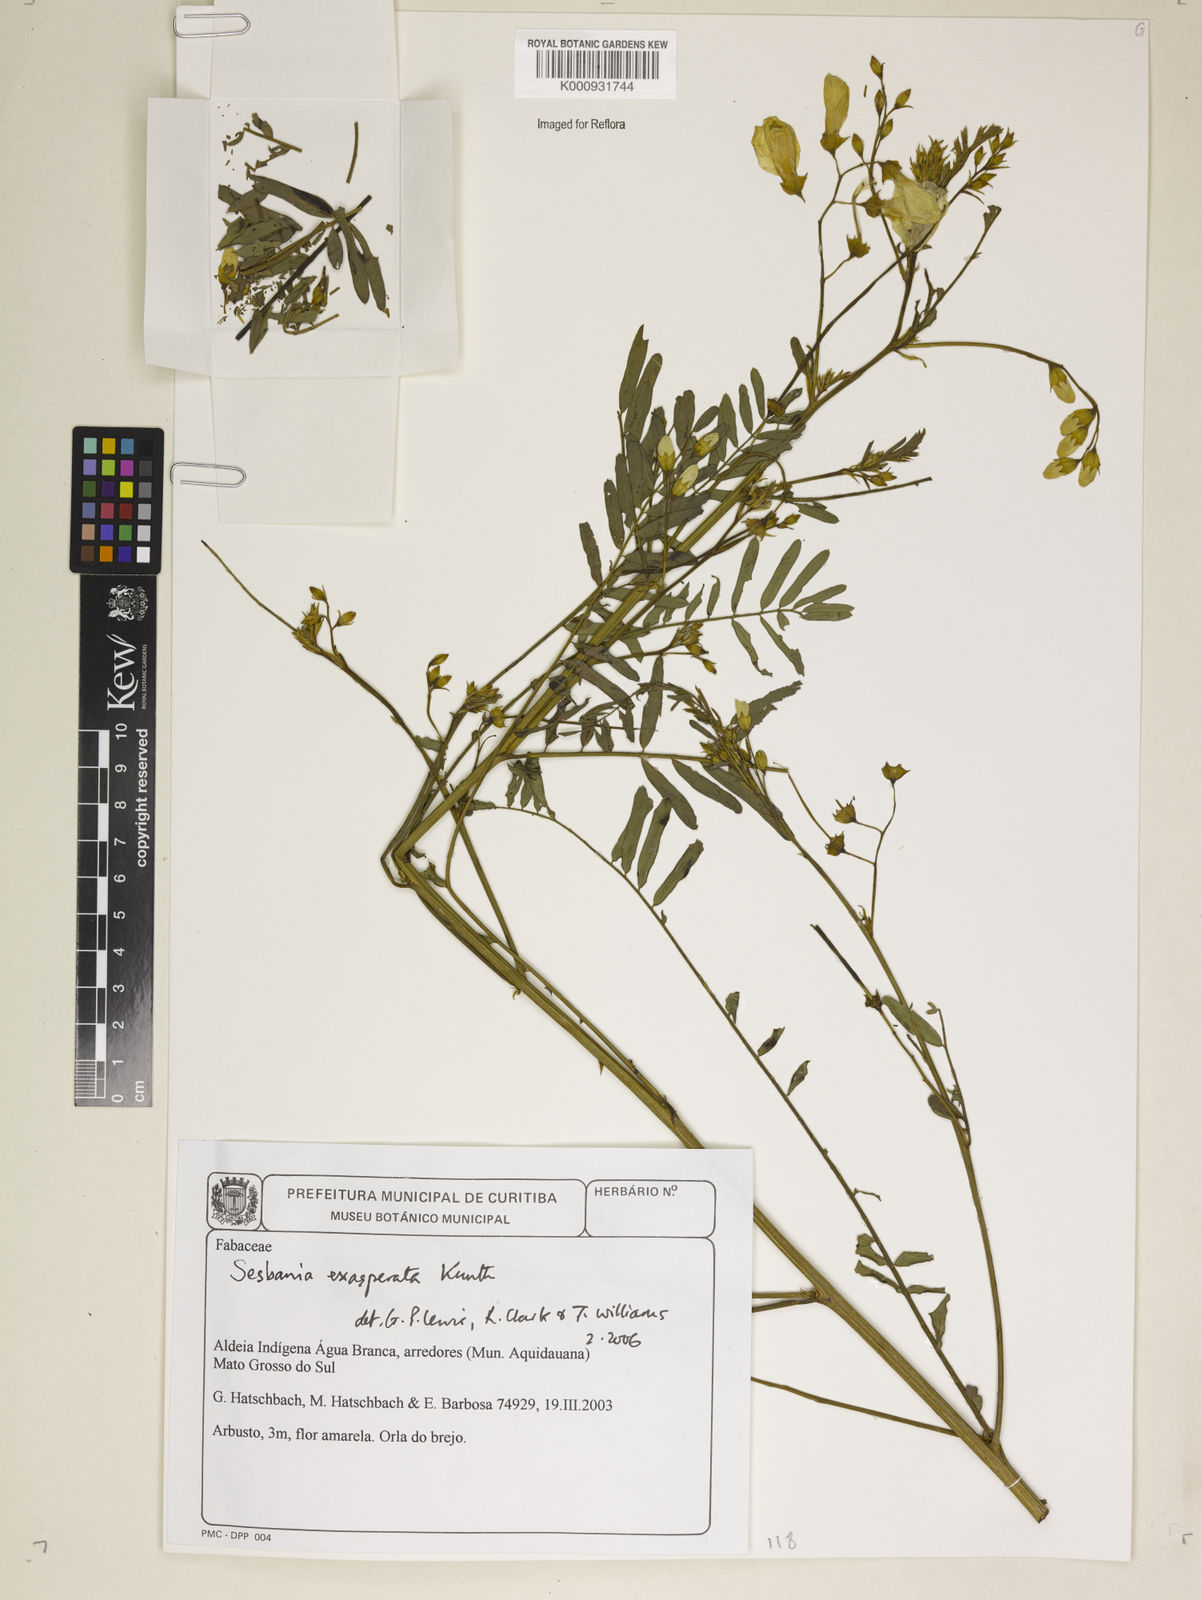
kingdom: Plantae
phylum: Tracheophyta
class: Magnoliopsida
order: Fabales
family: Fabaceae
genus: Sesbania
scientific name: Sesbania exasperata
